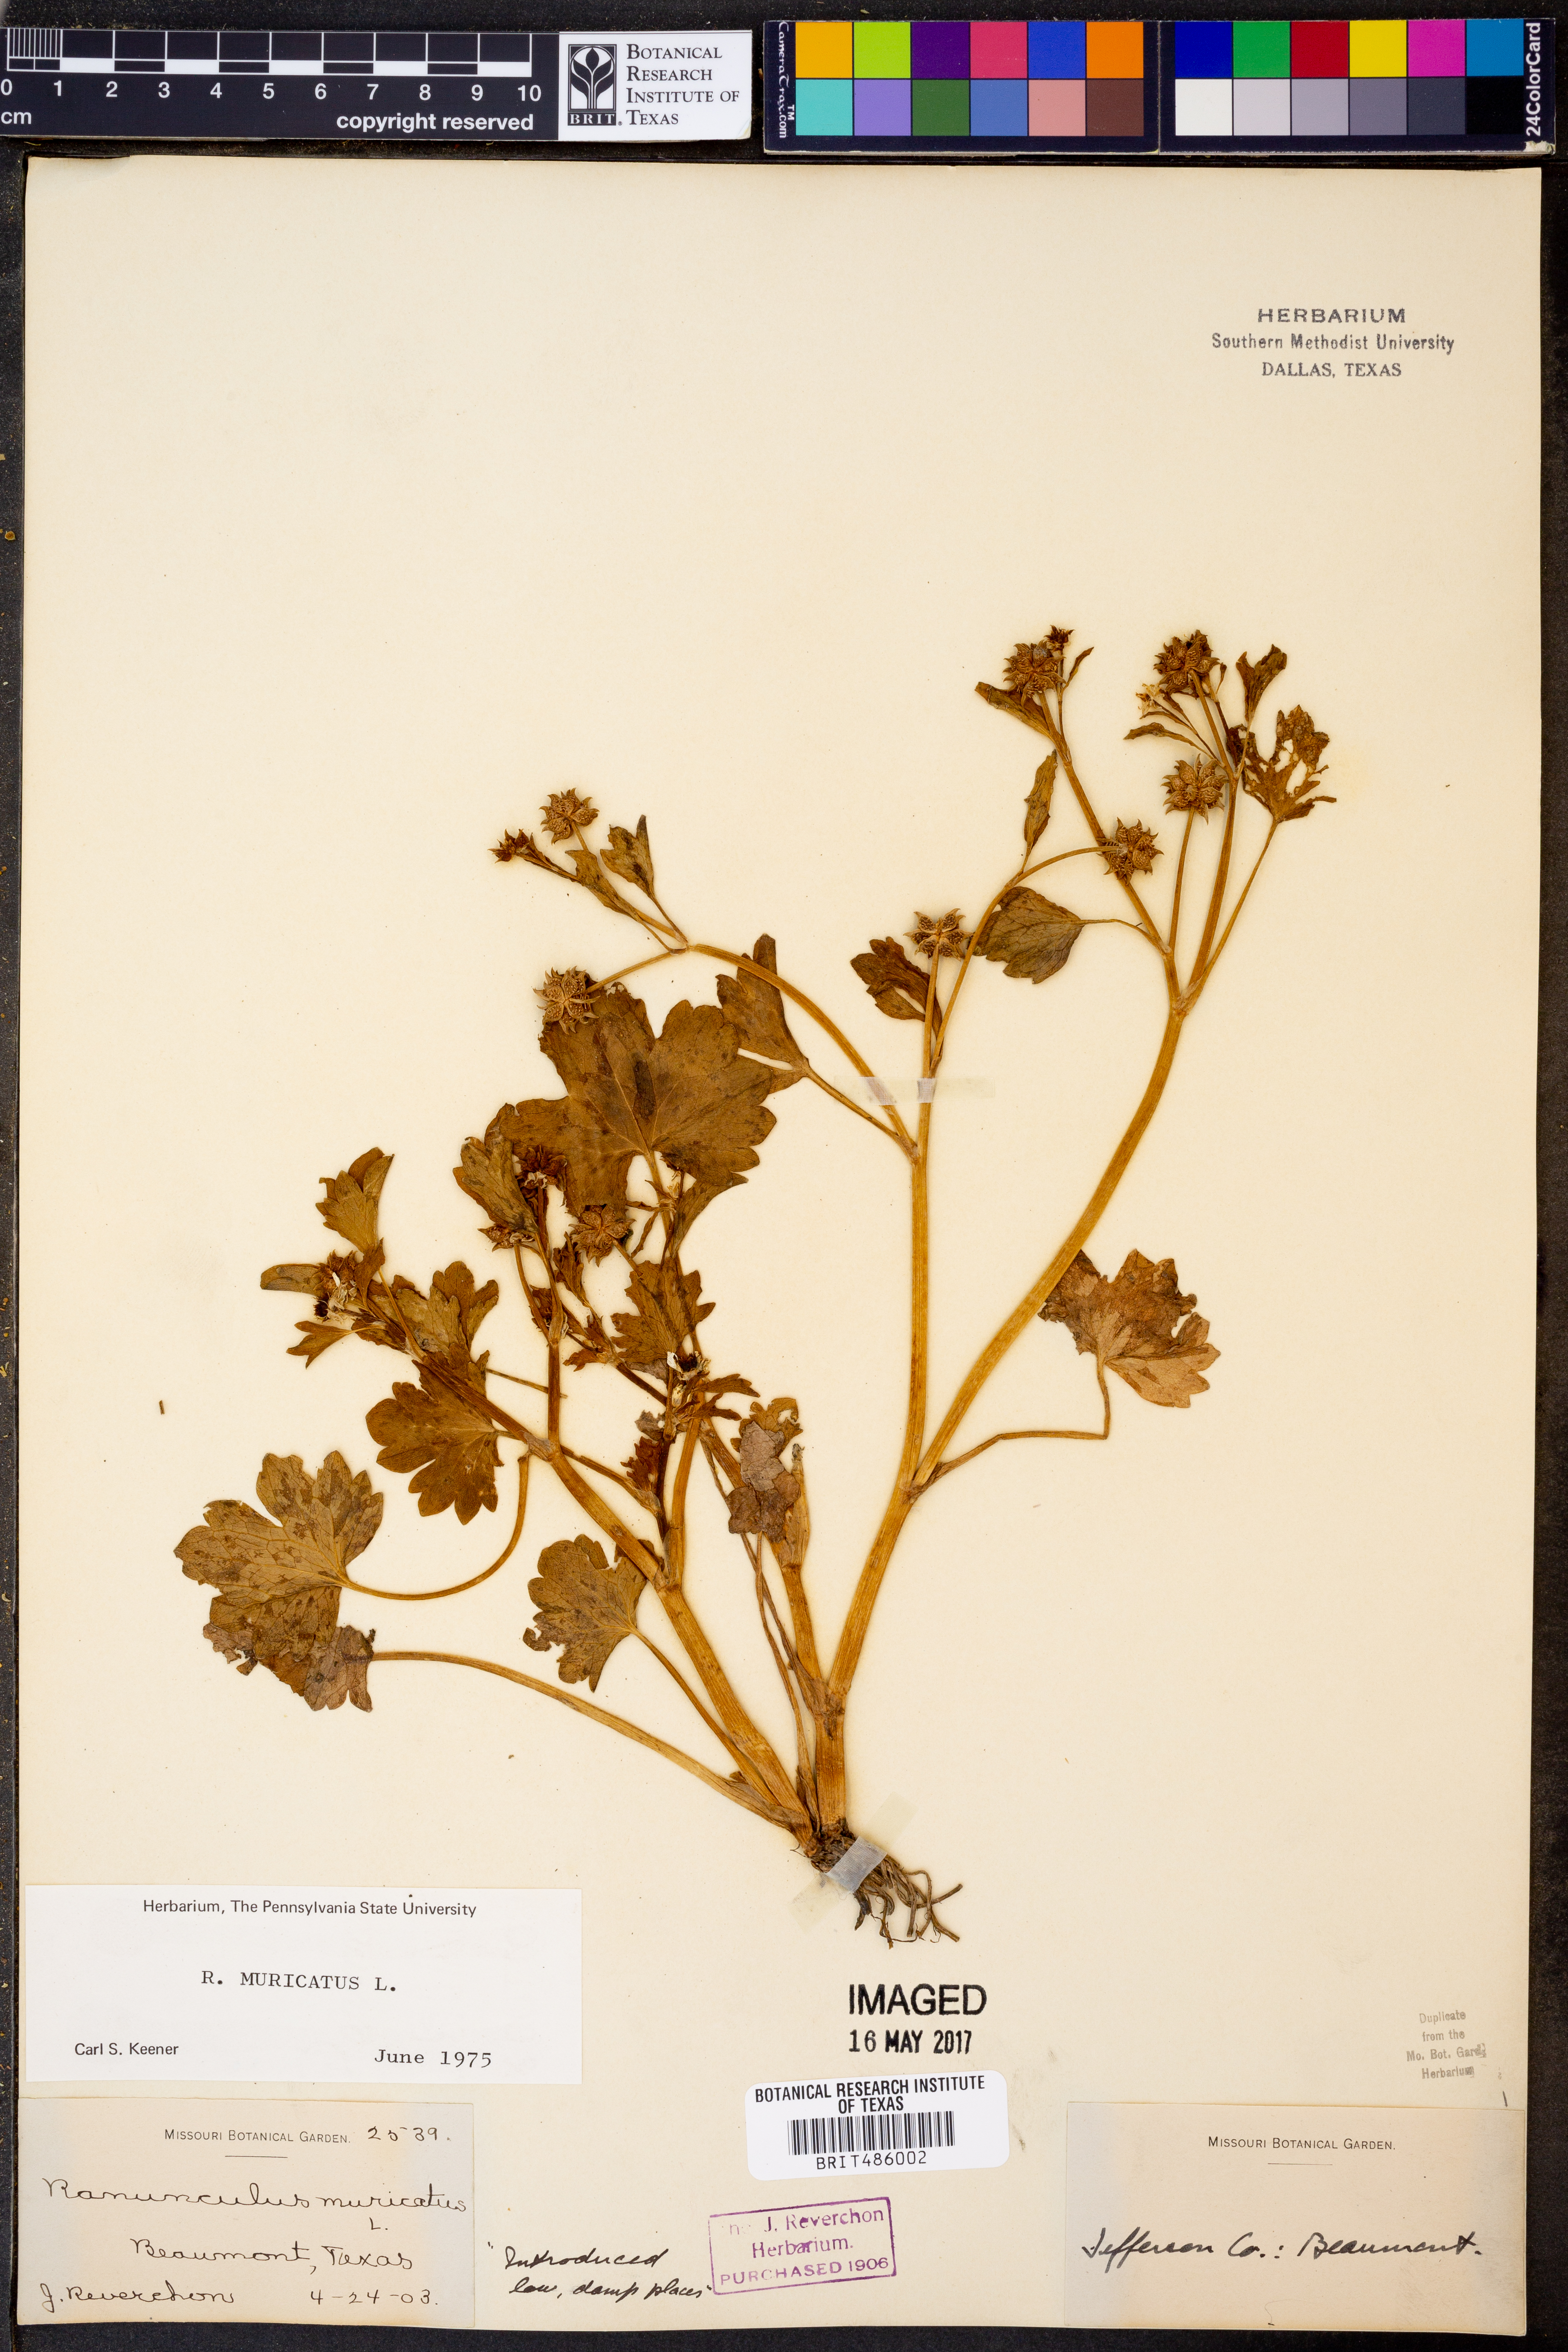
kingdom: Plantae
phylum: Tracheophyta
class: Magnoliopsida
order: Ranunculales
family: Ranunculaceae
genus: Ranunculus
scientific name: Ranunculus muricatus
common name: Rough-fruited buttercup
